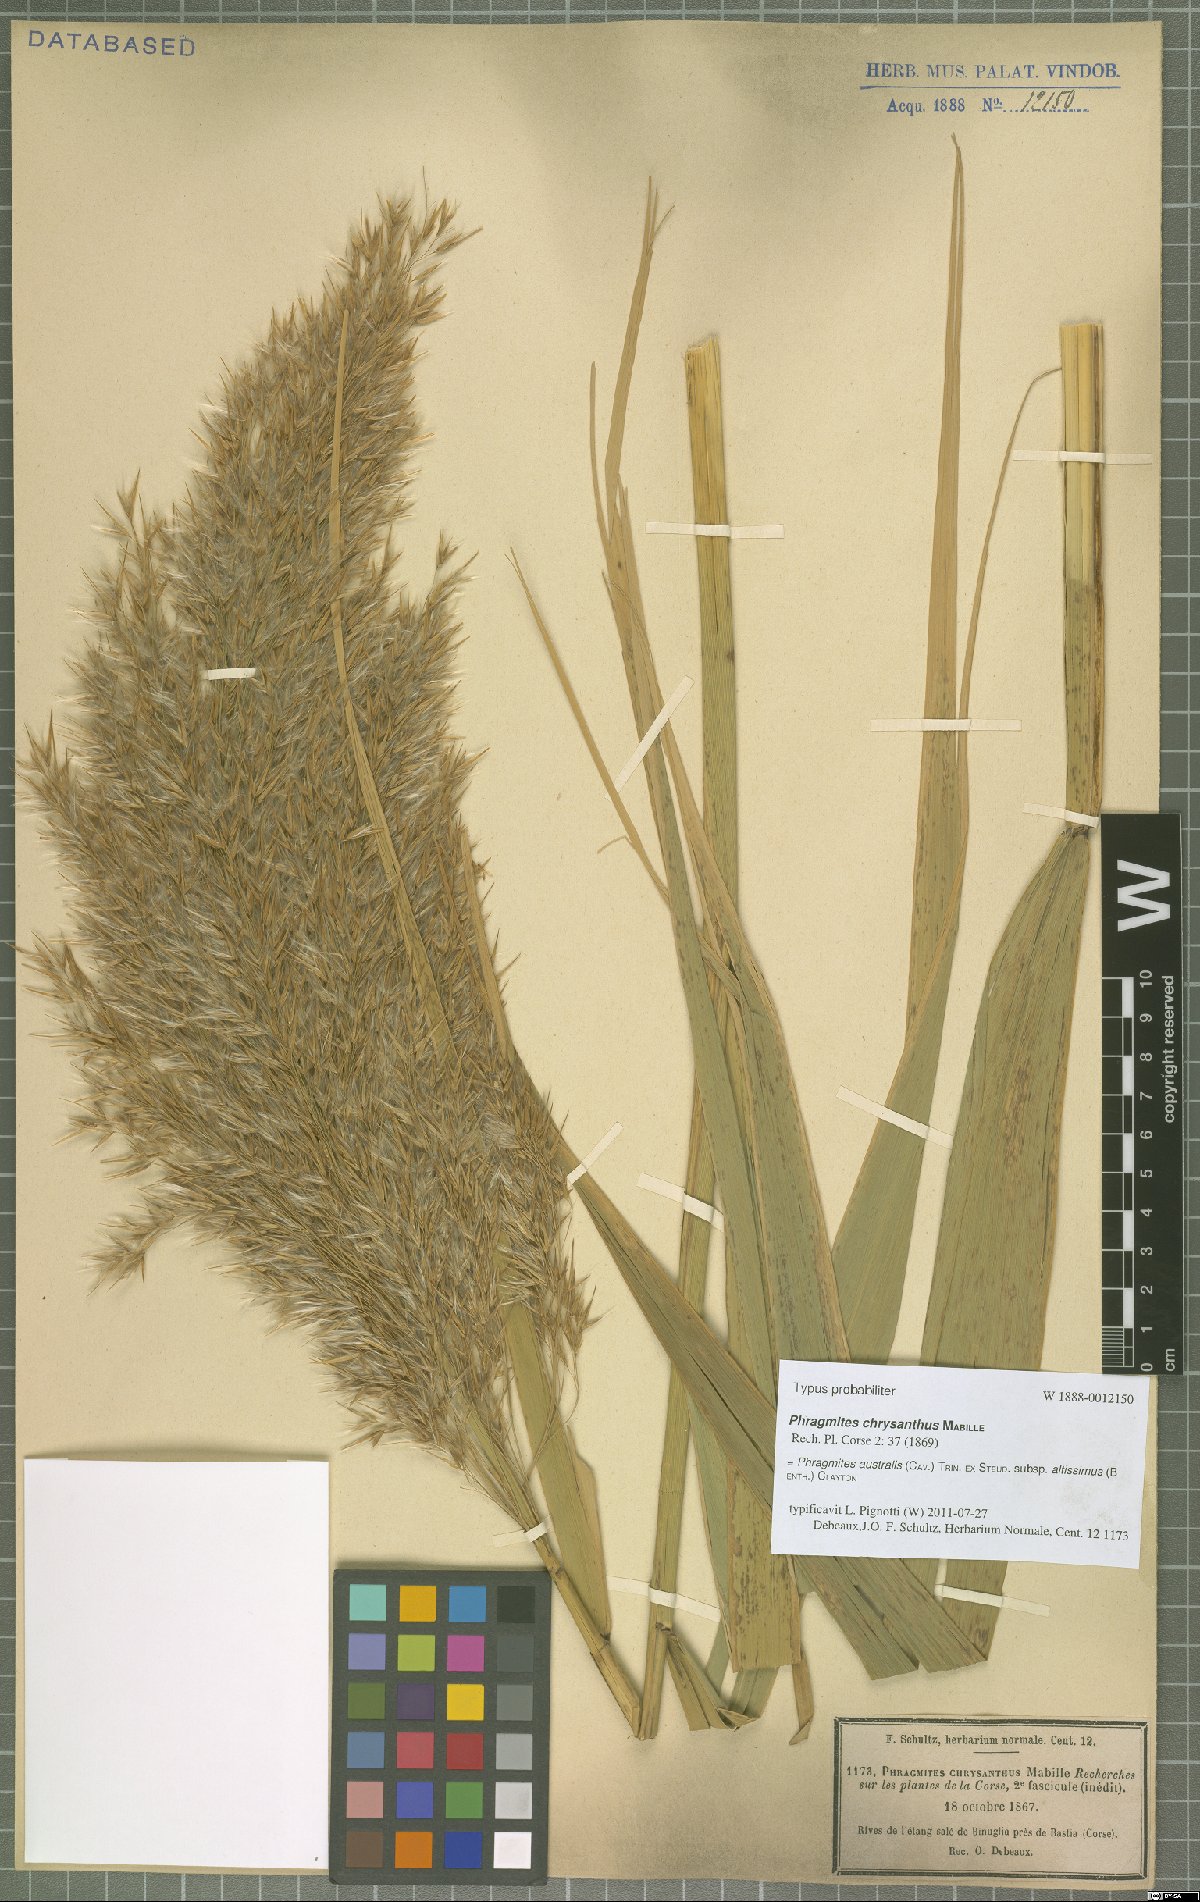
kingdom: Plantae
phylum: Tracheophyta
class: Liliopsida
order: Poales
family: Poaceae
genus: Phragmites
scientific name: Phragmites australis
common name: Common reed
